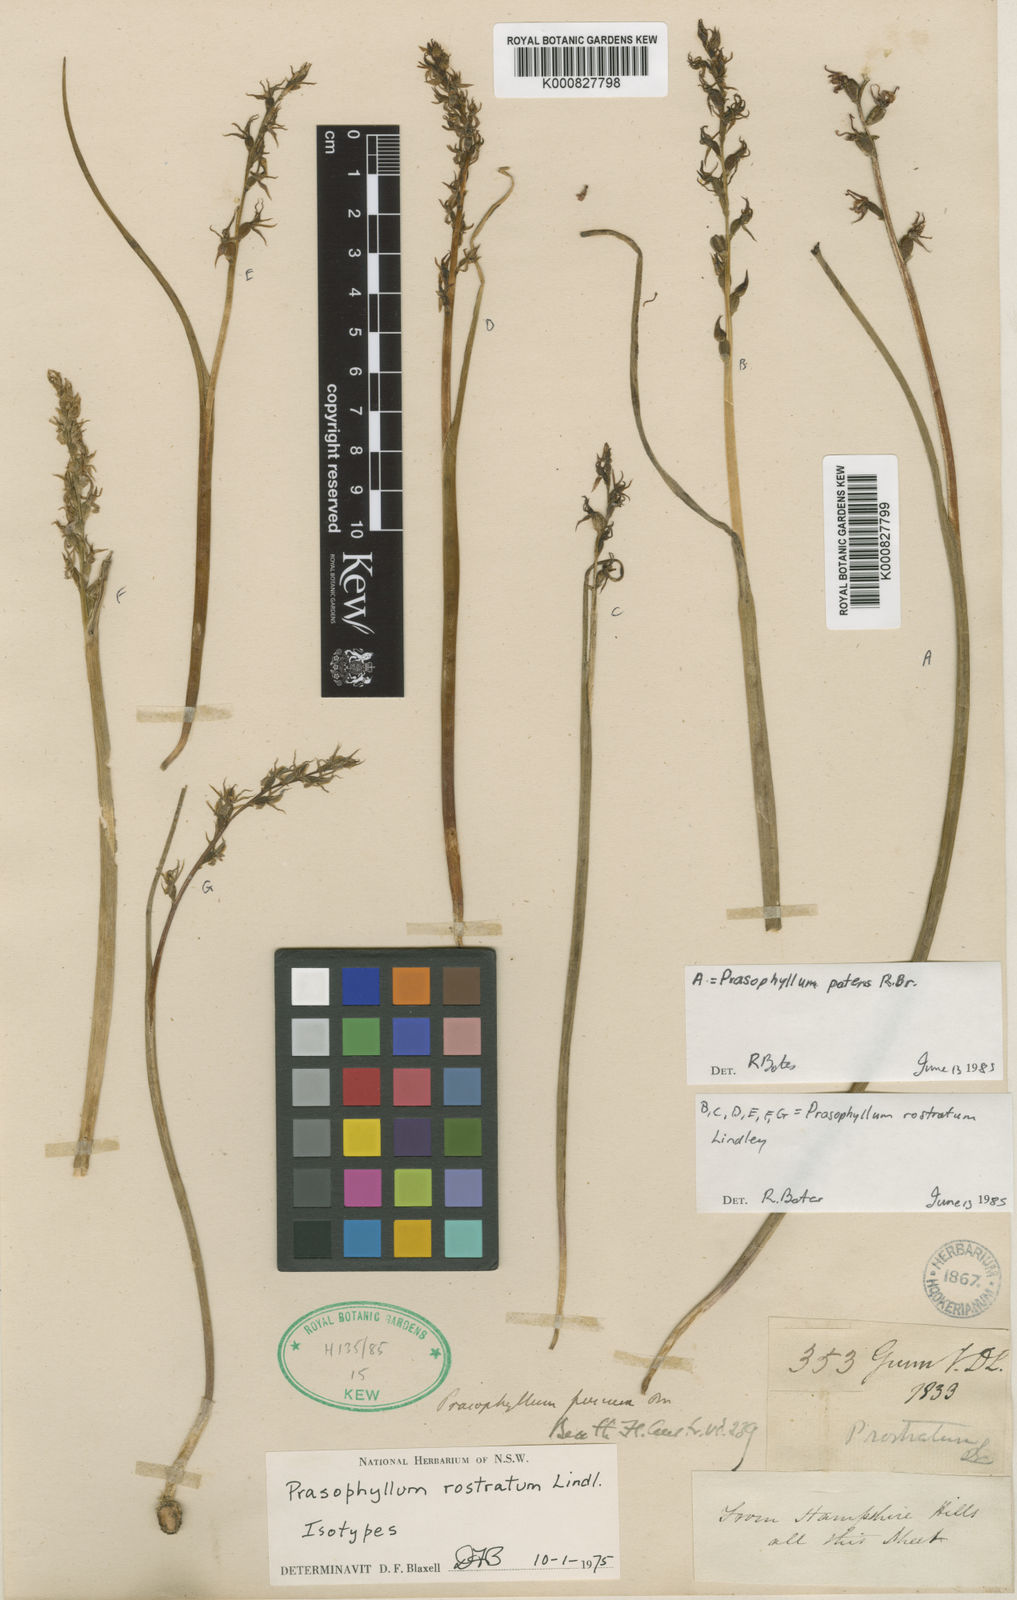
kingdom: Plantae
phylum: Tracheophyta
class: Liliopsida
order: Asparagales
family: Orchidaceae
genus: Prasophyllum
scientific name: Prasophyllum rostratum
